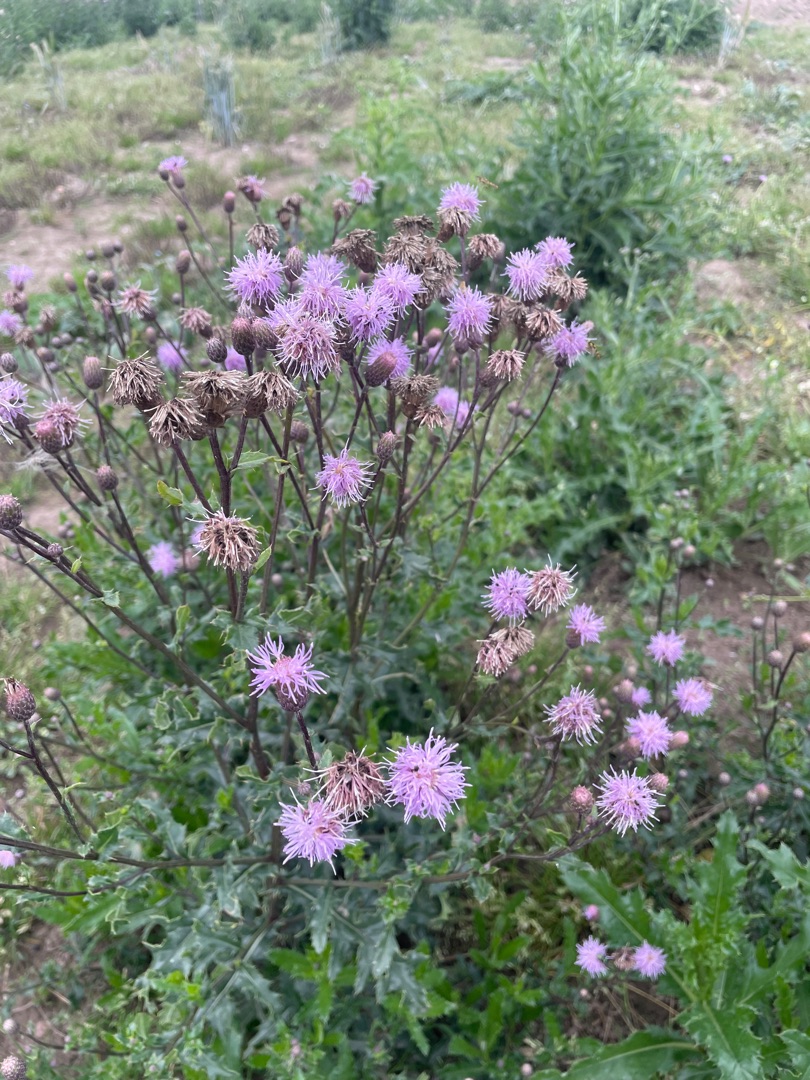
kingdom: Plantae
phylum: Tracheophyta
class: Magnoliopsida
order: Asterales
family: Asteraceae
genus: Cirsium
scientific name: Cirsium arvense
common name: Ager-tidsel
